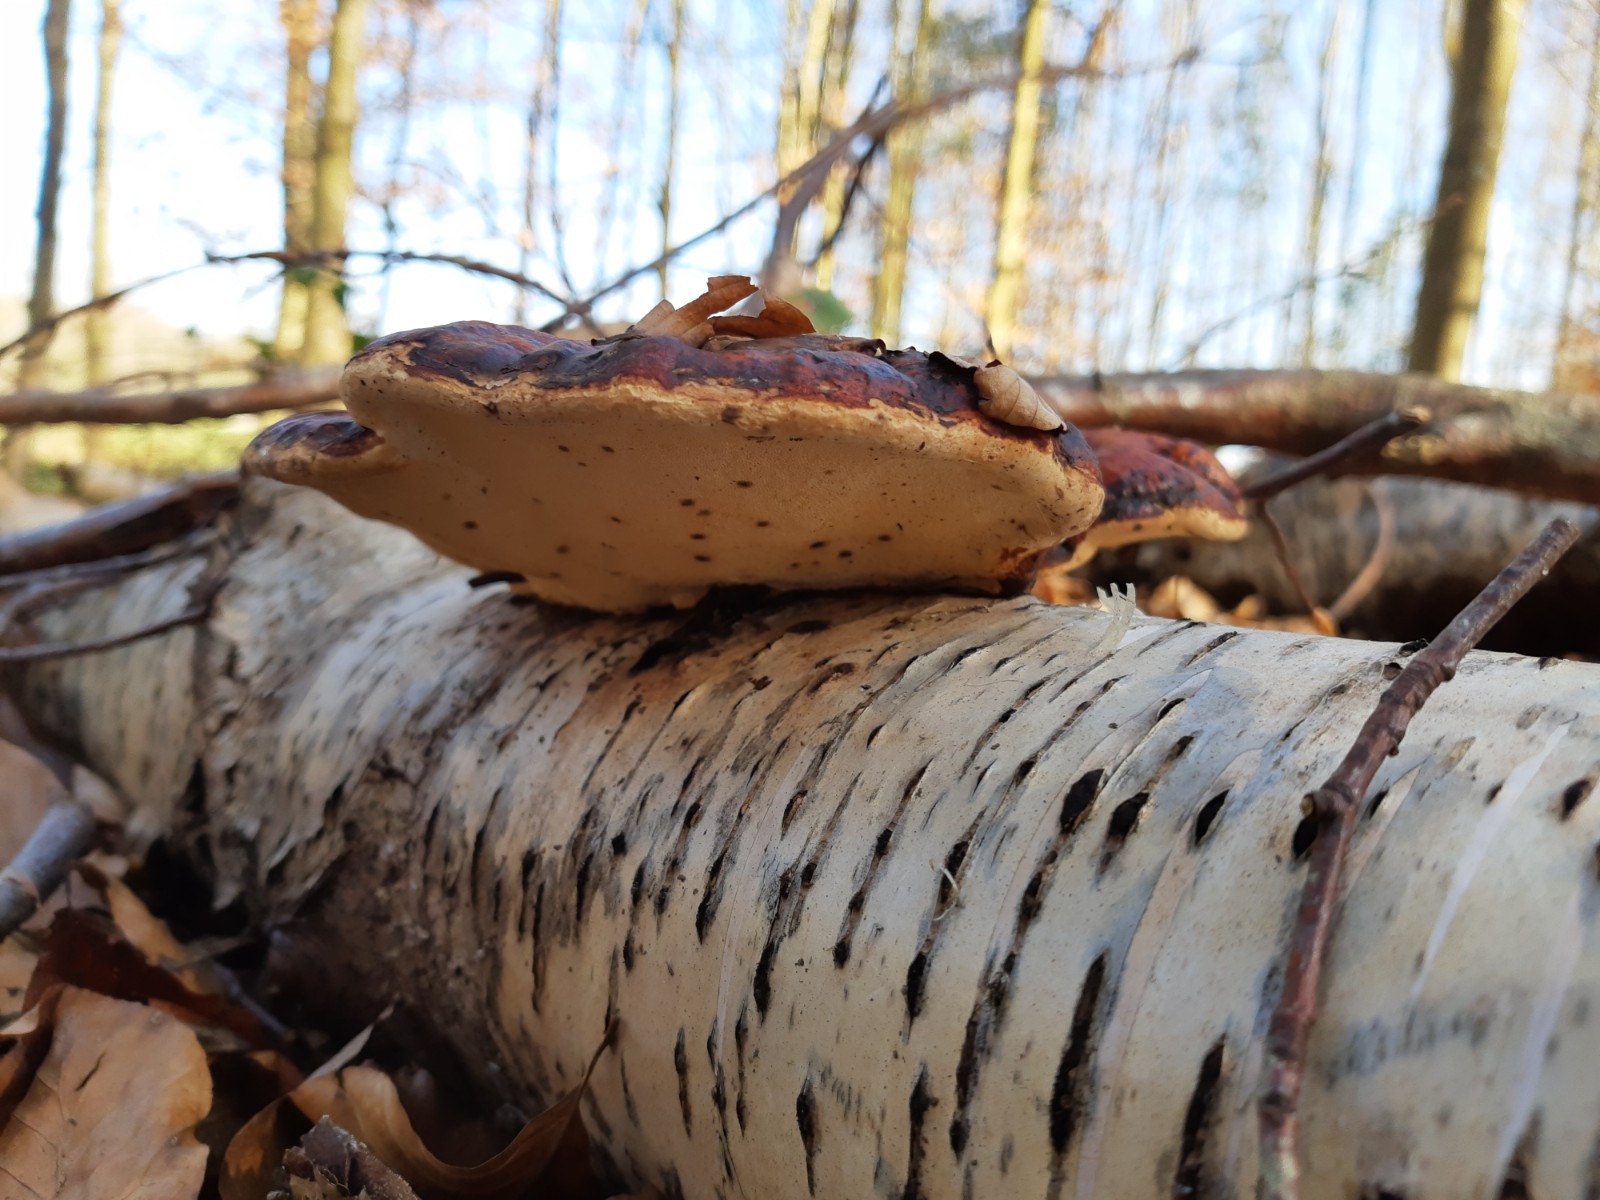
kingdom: Fungi
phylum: Basidiomycota
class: Agaricomycetes
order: Polyporales
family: Fomitopsidaceae
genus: Fomitopsis
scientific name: Fomitopsis pinicola
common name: randbæltet hovporesvamp
